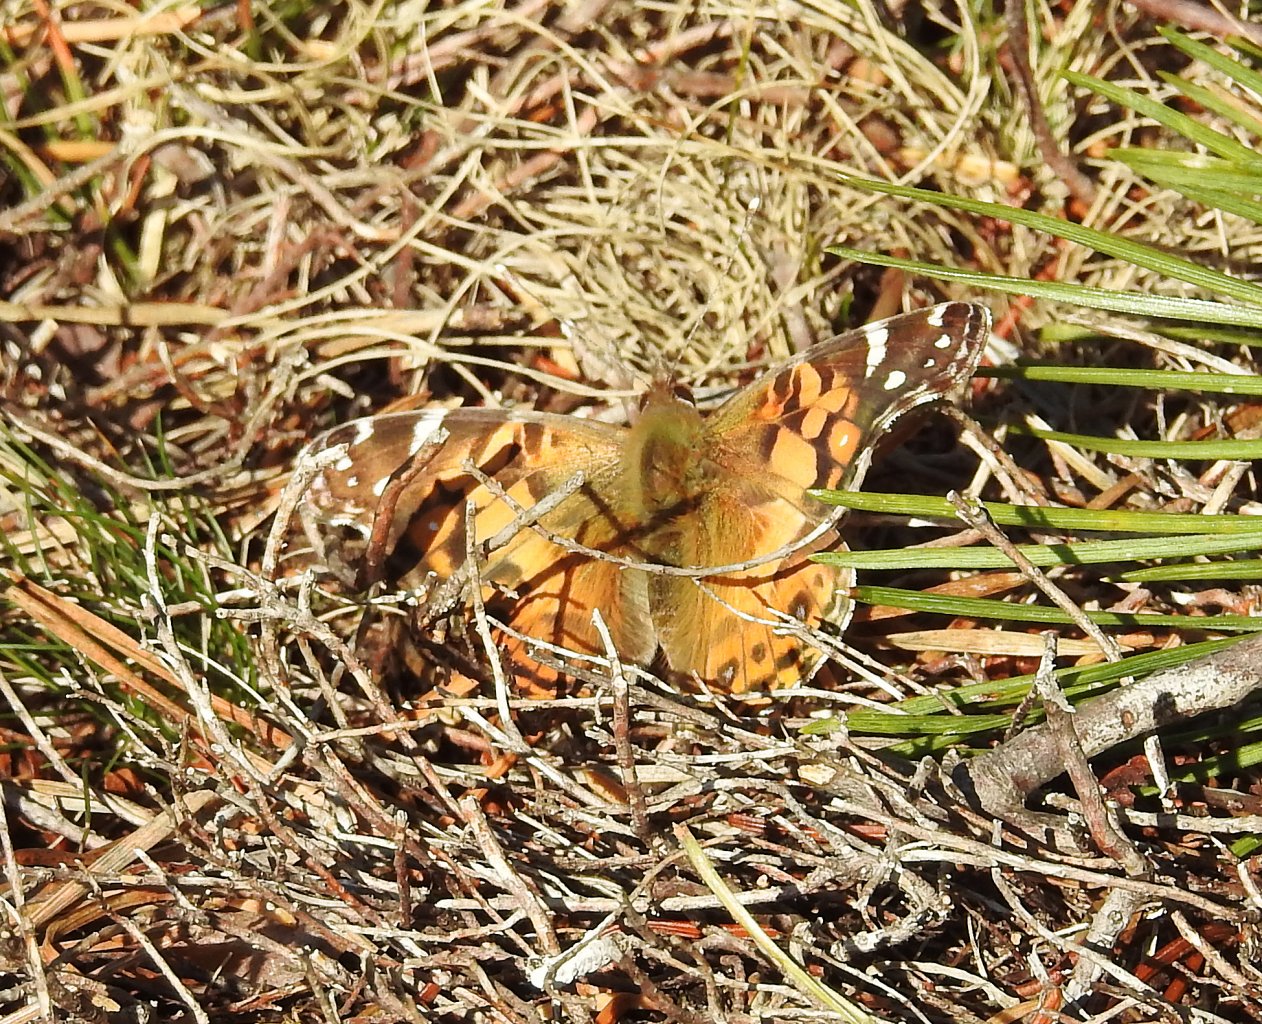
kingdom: Animalia
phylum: Arthropoda
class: Insecta
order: Lepidoptera
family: Nymphalidae
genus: Vanessa
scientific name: Vanessa virginiensis
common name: American Lady
